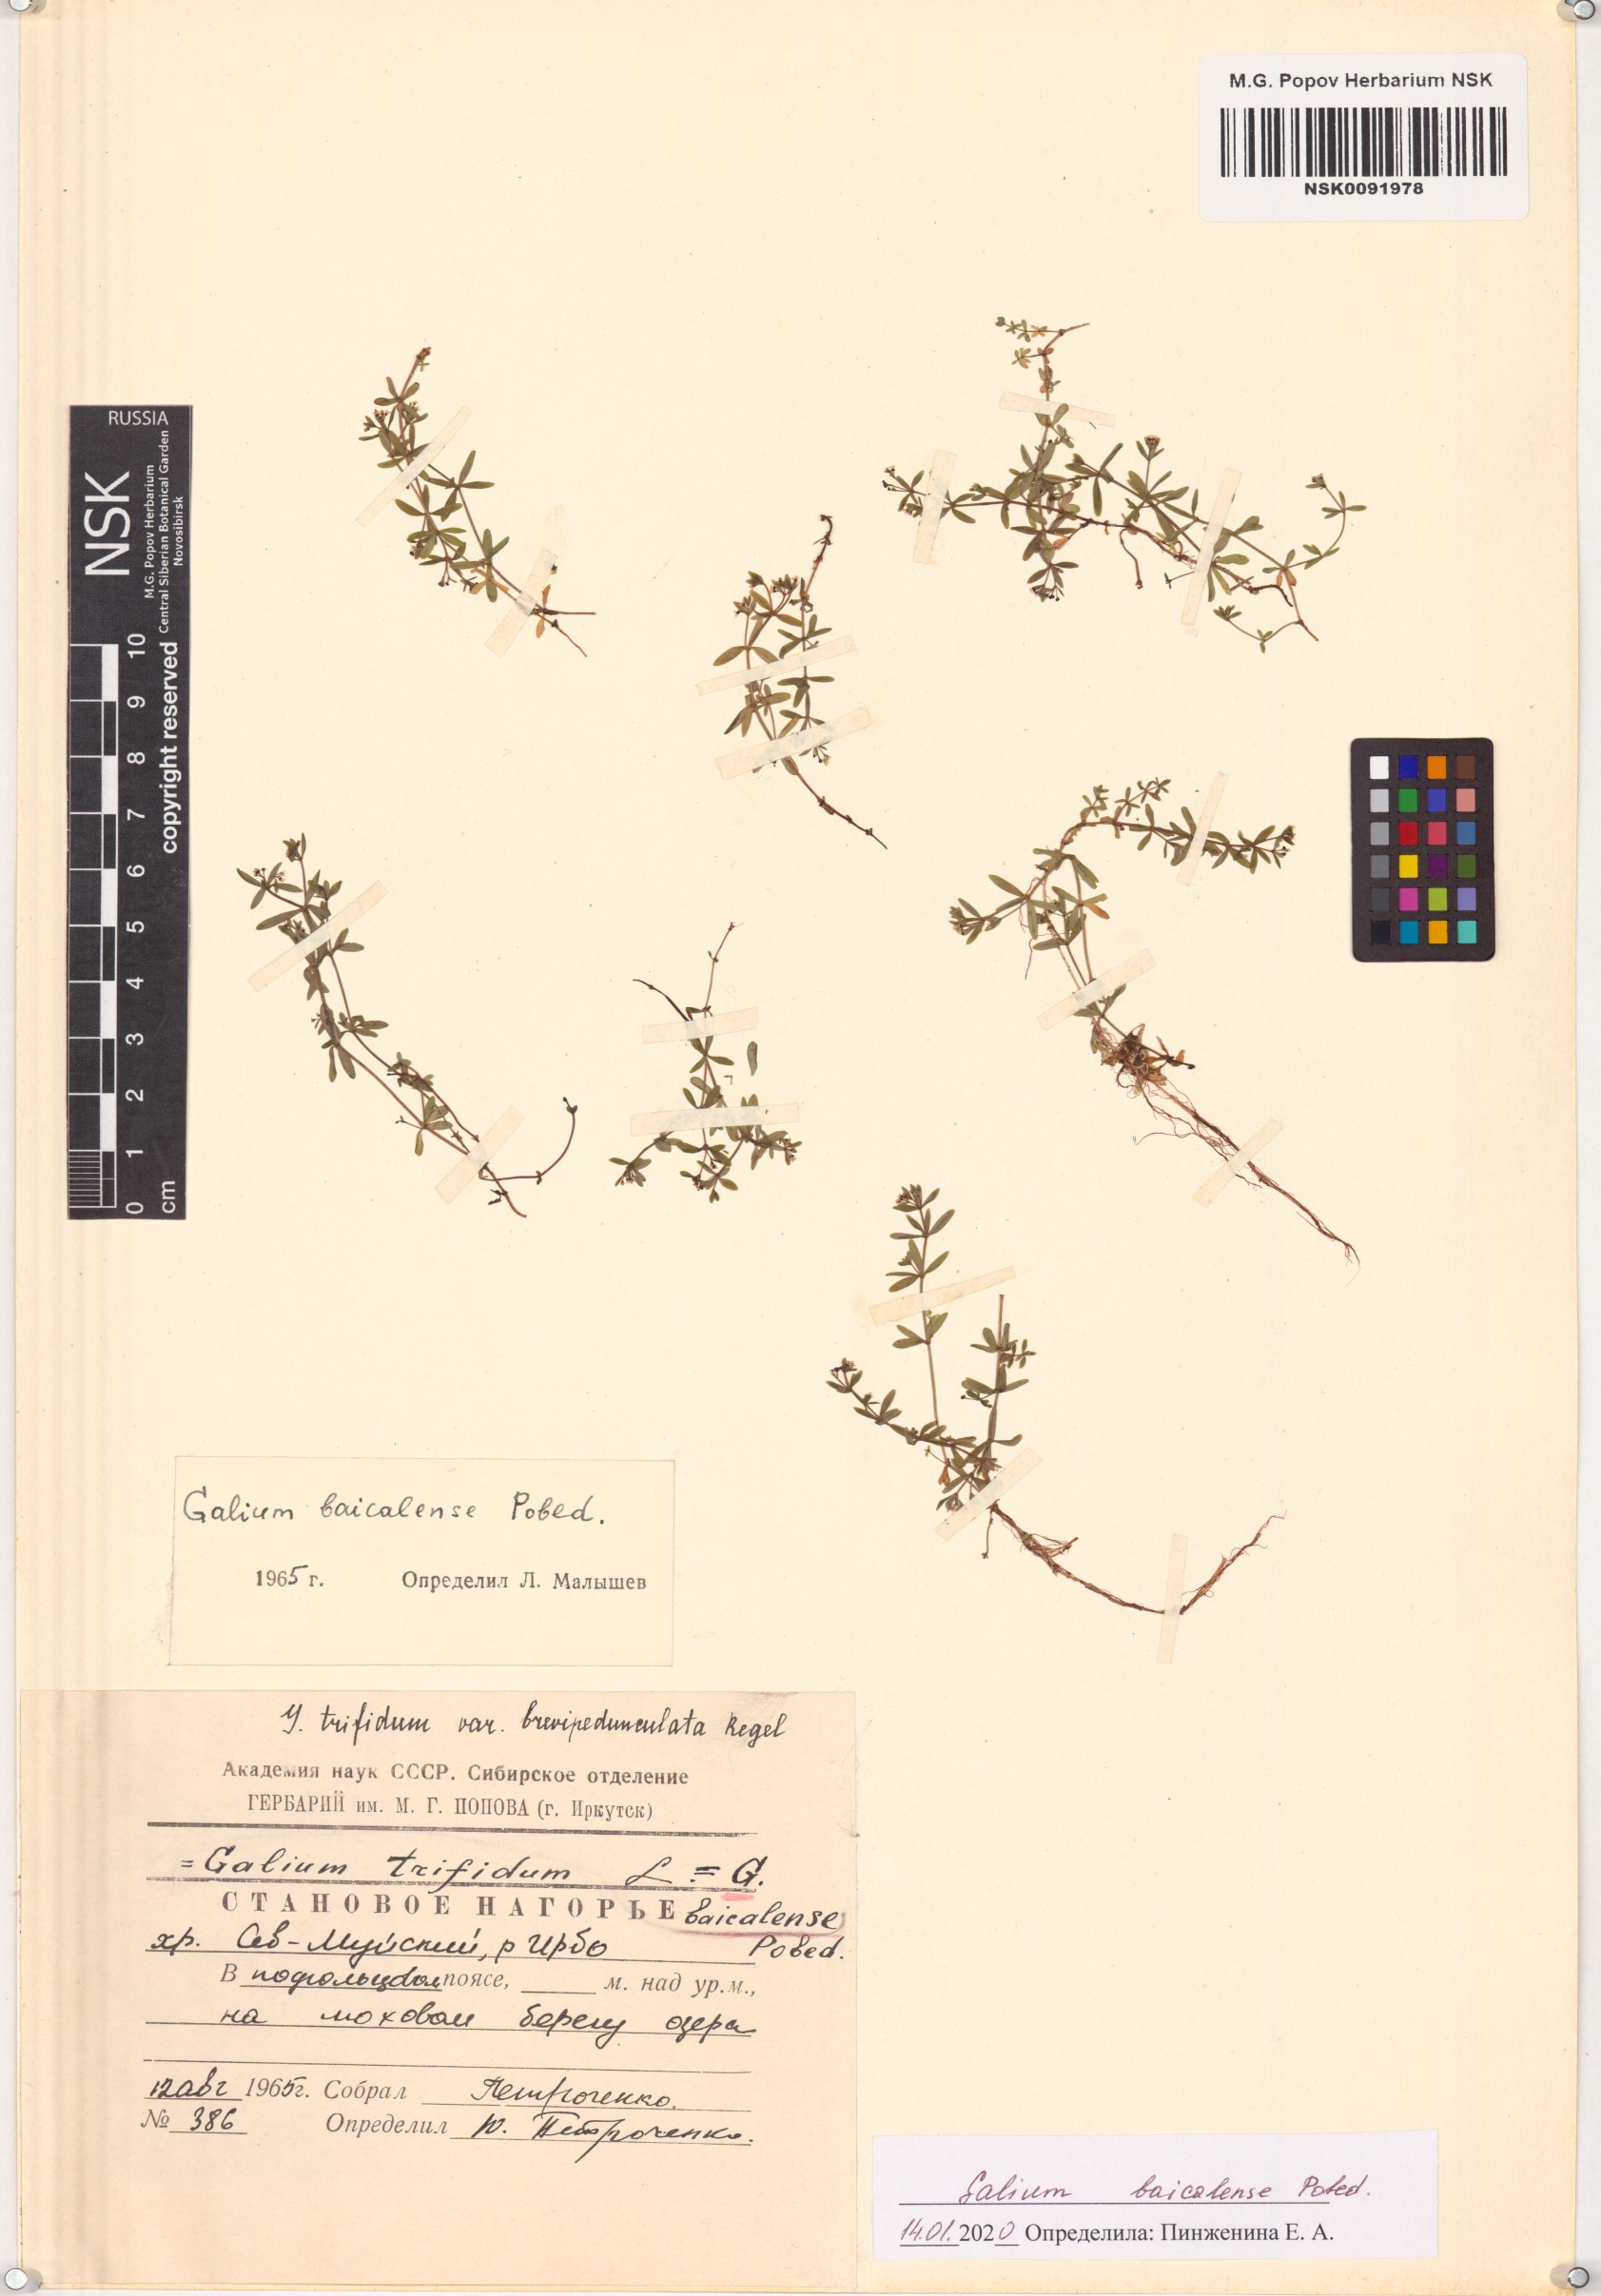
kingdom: Plantae
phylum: Tracheophyta
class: Magnoliopsida
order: Gentianales
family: Rubiaceae
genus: Galium
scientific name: Galium trifidum
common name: Small bedstraw
